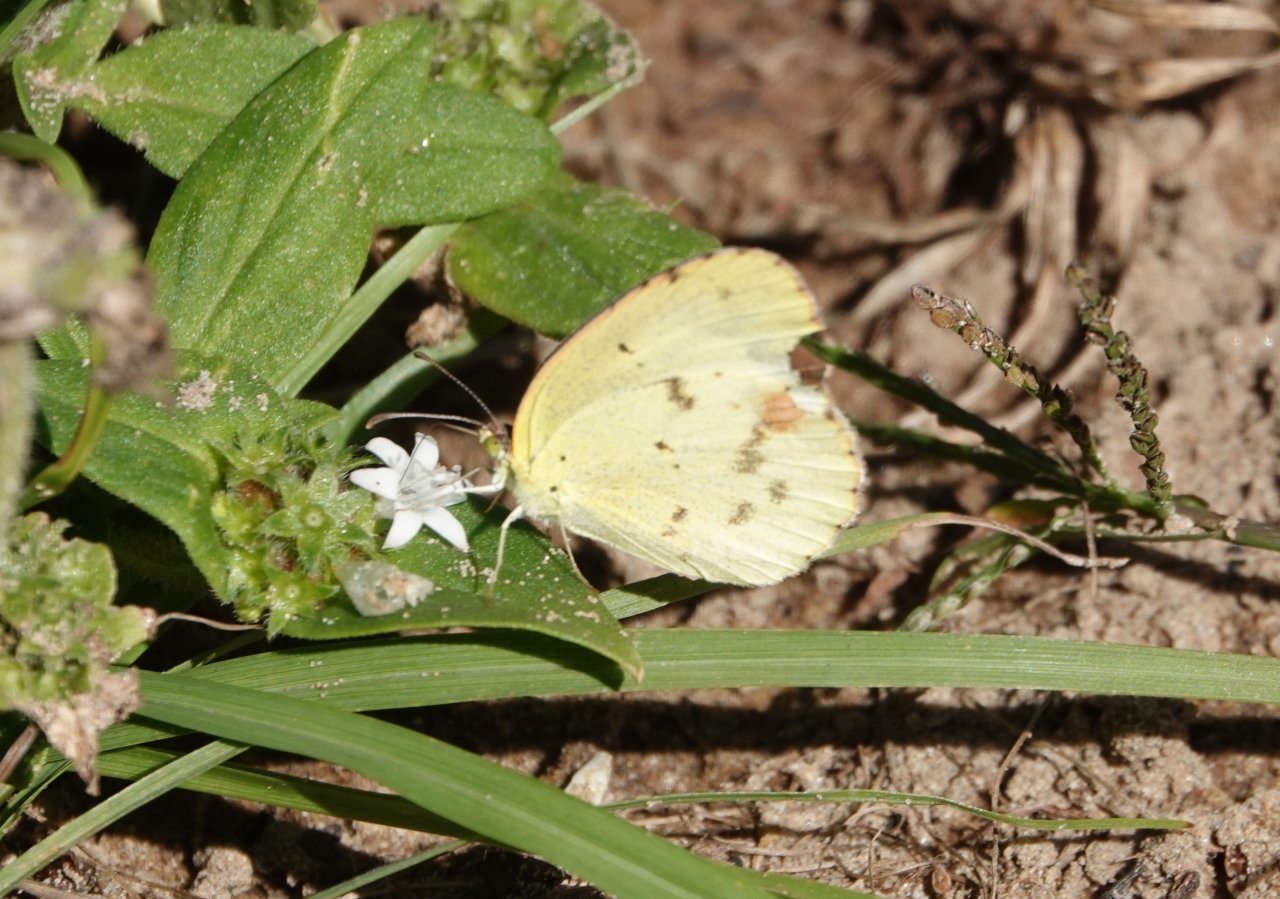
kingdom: Animalia
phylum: Arthropoda
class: Insecta
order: Lepidoptera
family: Pieridae
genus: Pyrisitia
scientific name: Pyrisitia lisa
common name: Little Yellow
